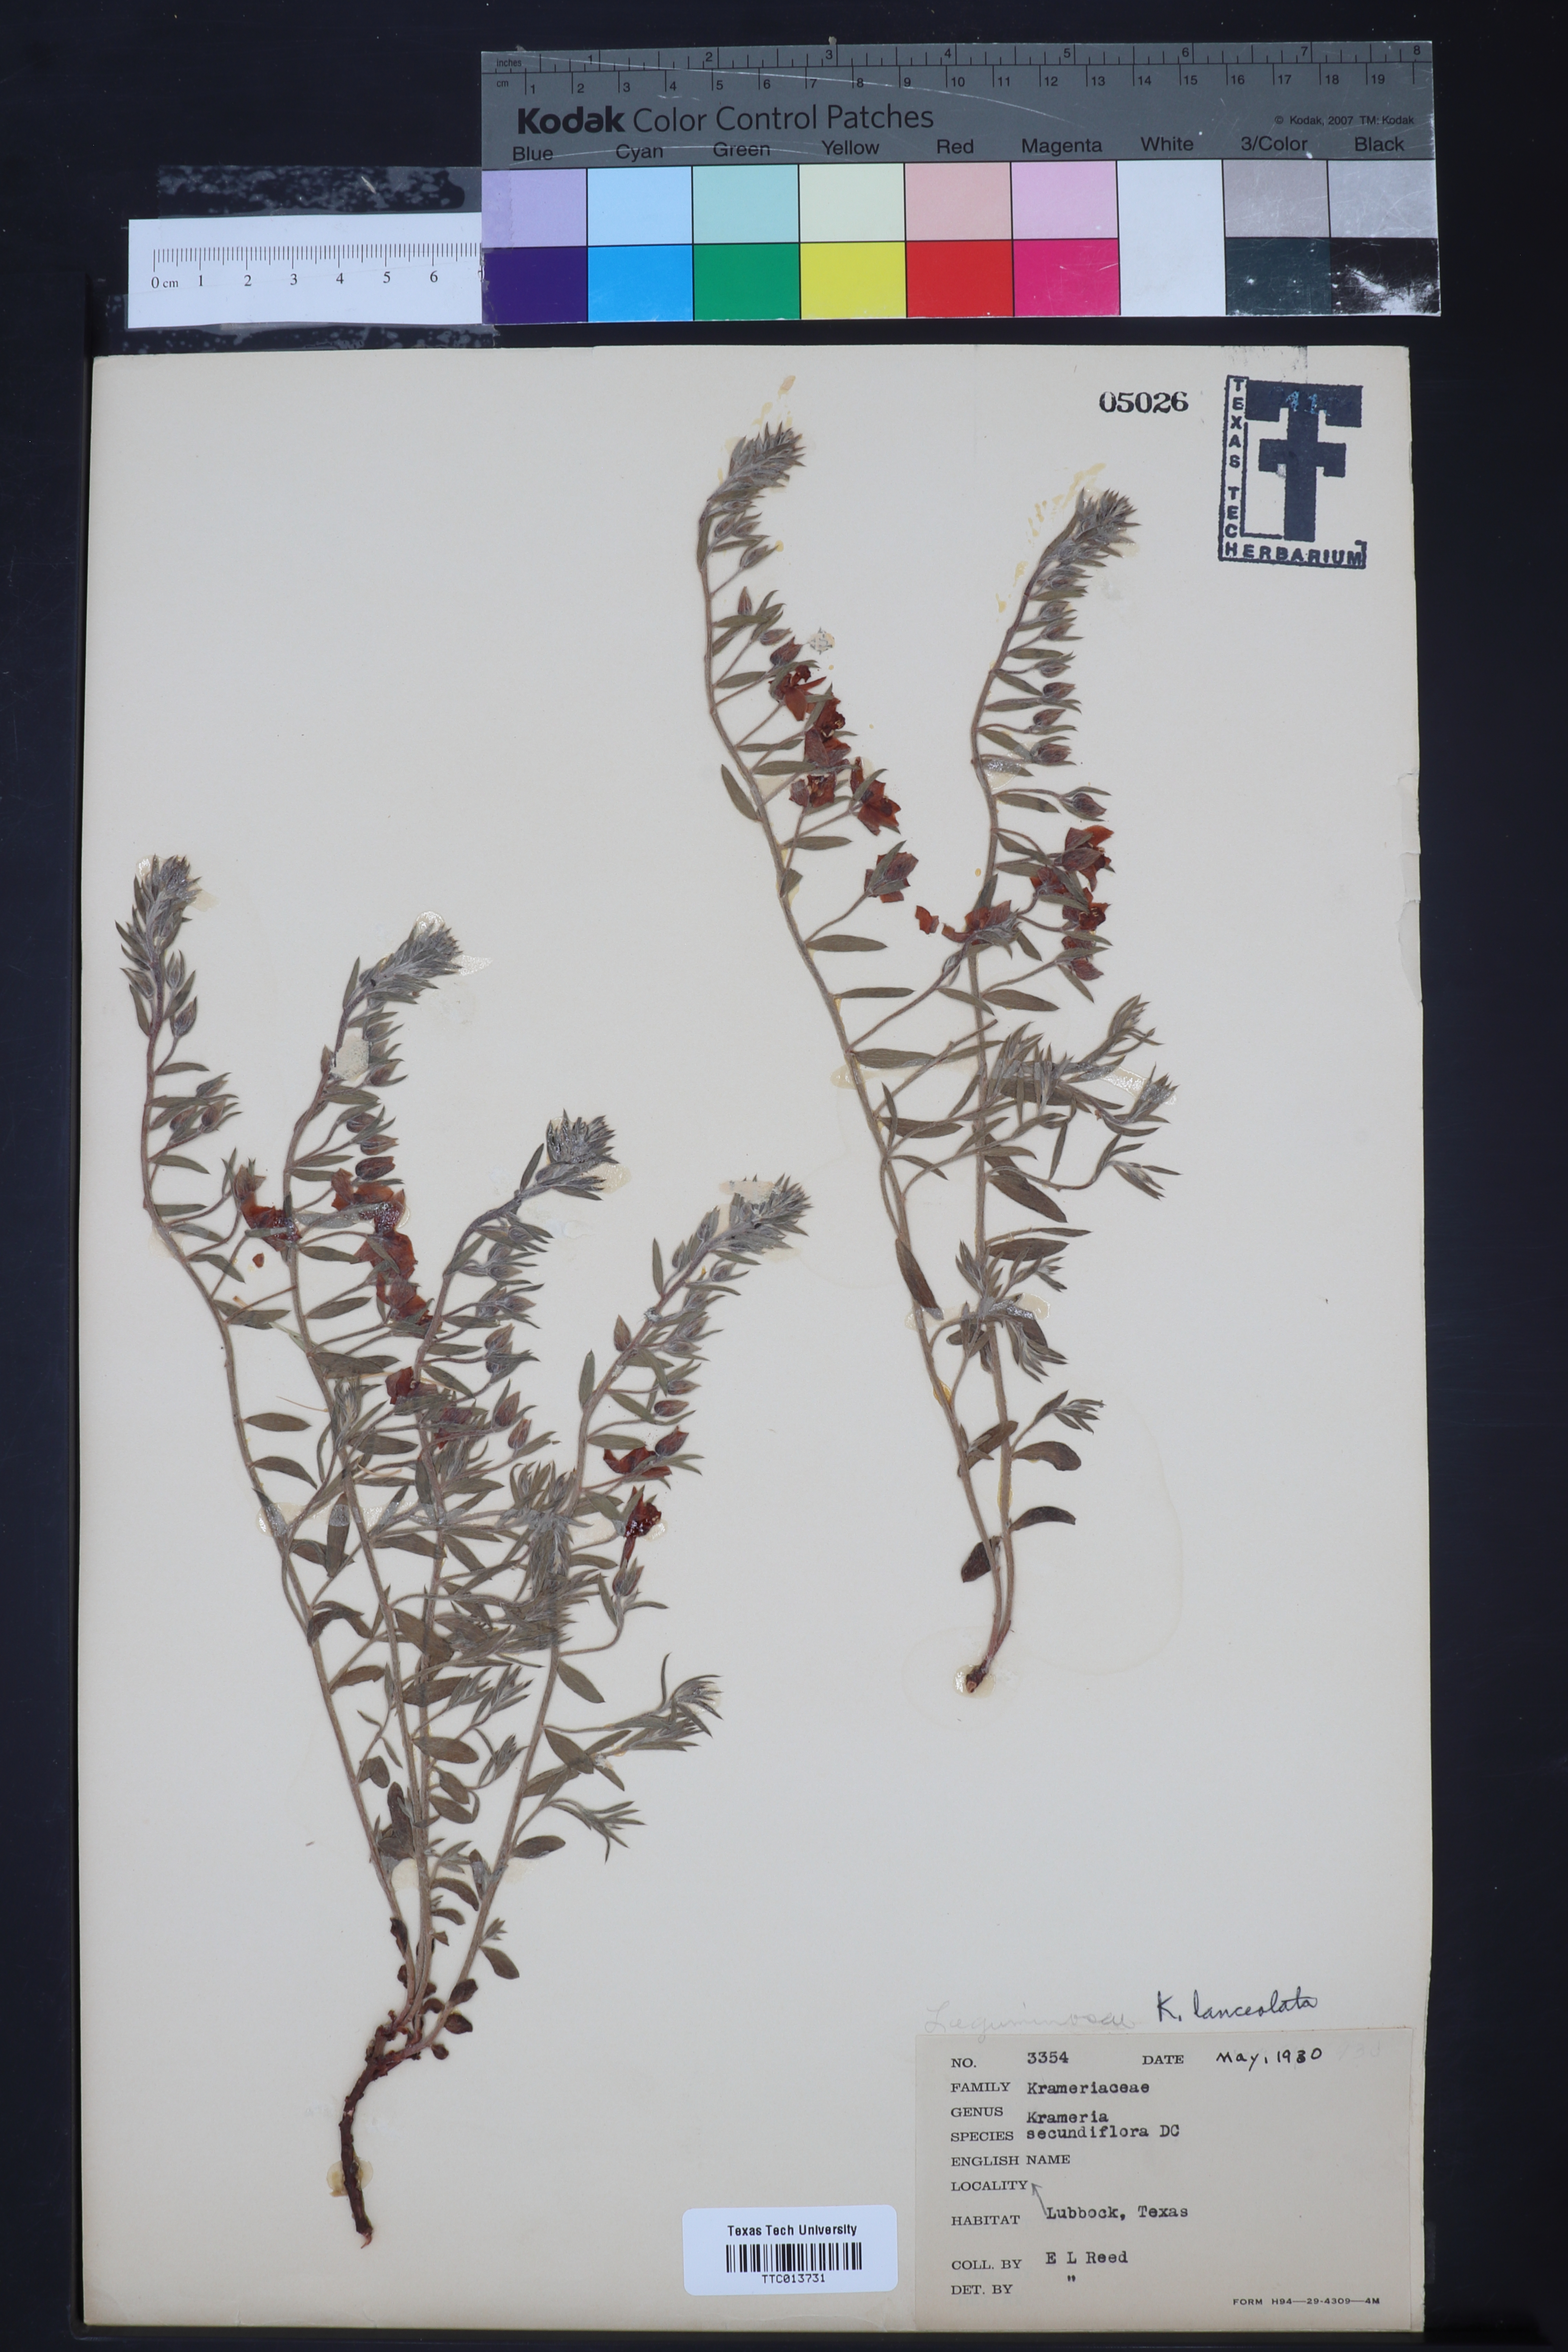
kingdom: Plantae
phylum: Tracheophyta
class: Magnoliopsida
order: Zygophyllales
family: Krameriaceae
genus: Krameria
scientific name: Krameria lanceolata
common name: Ratany
